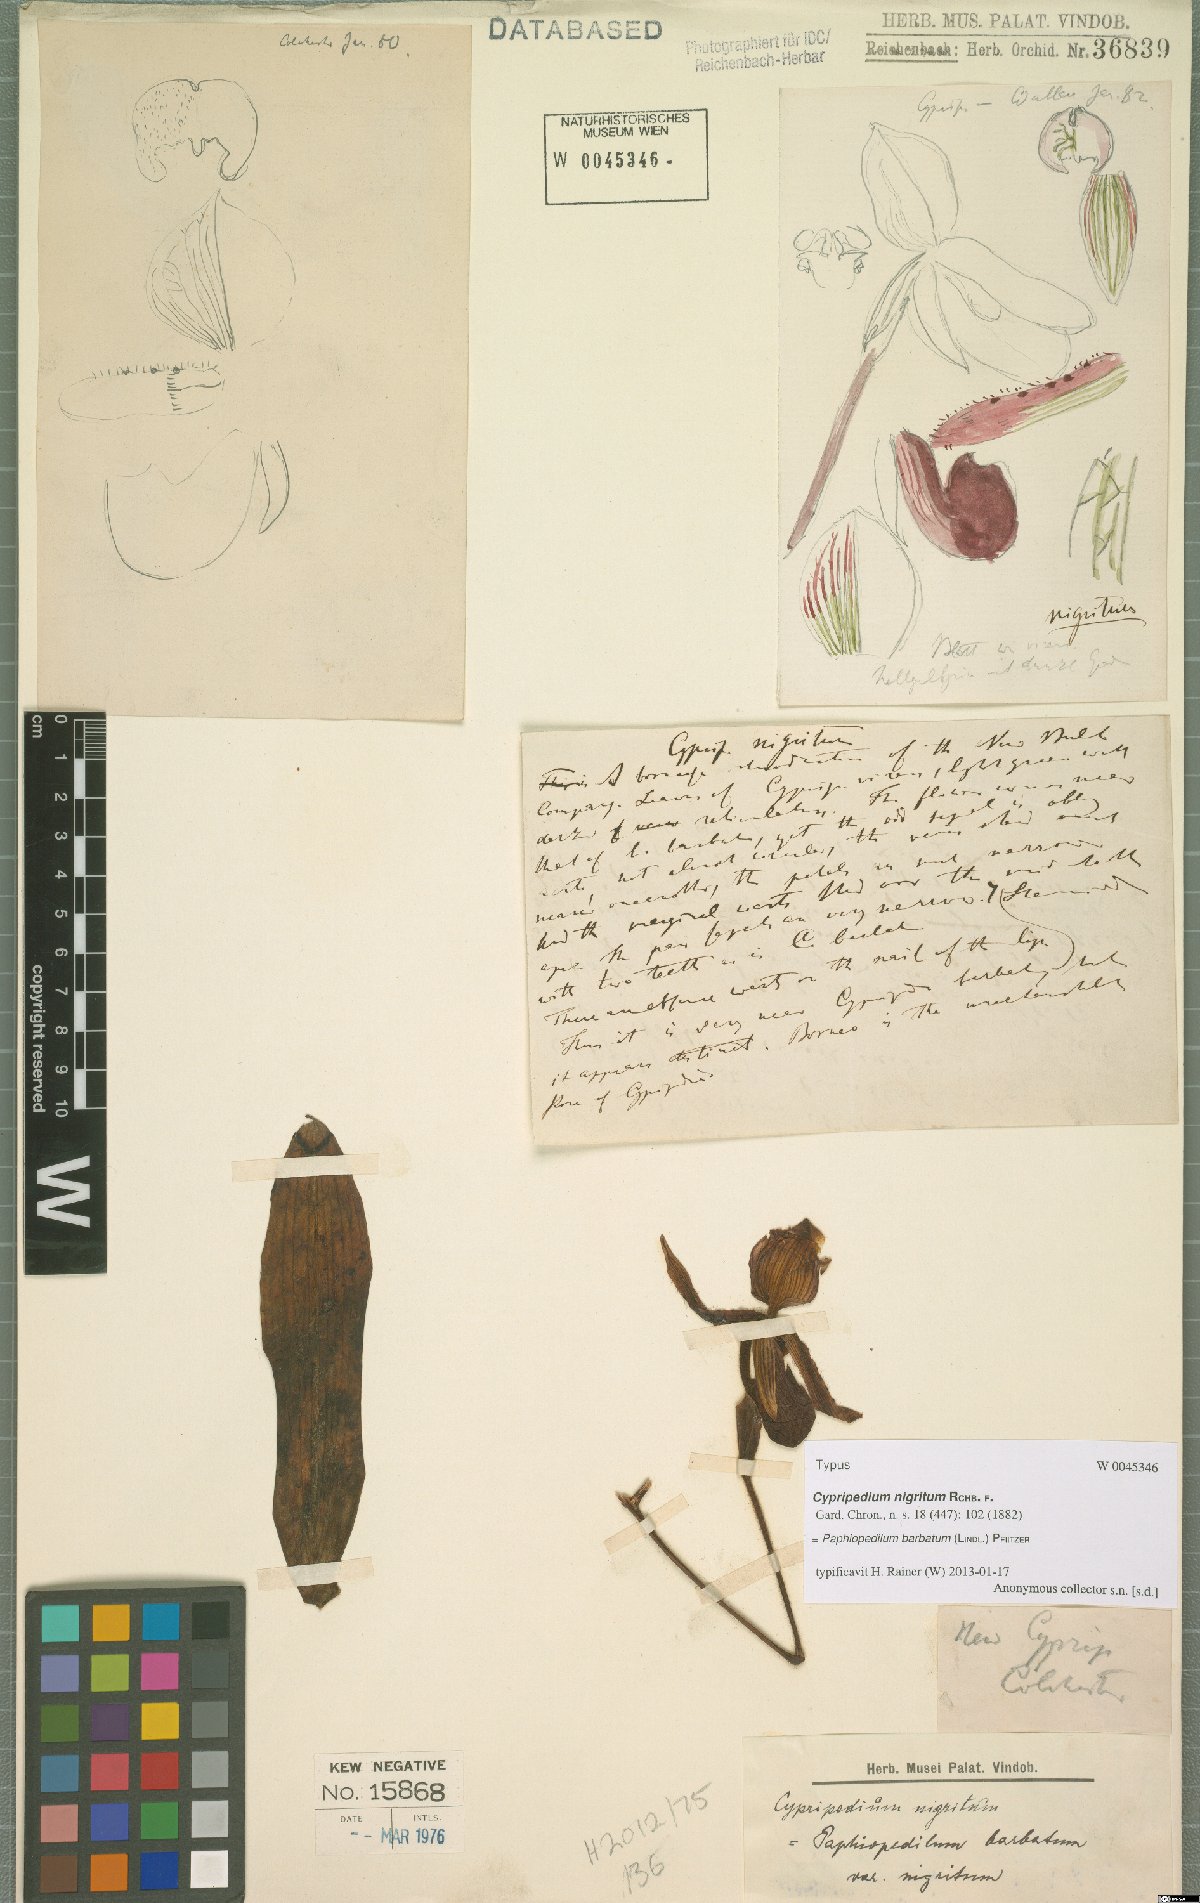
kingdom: Plantae
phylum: Tracheophyta
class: Liliopsida
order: Asparagales
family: Orchidaceae
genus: Paphiopedilum
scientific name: Paphiopedilum barbatum
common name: Bearded paphiopedilum
